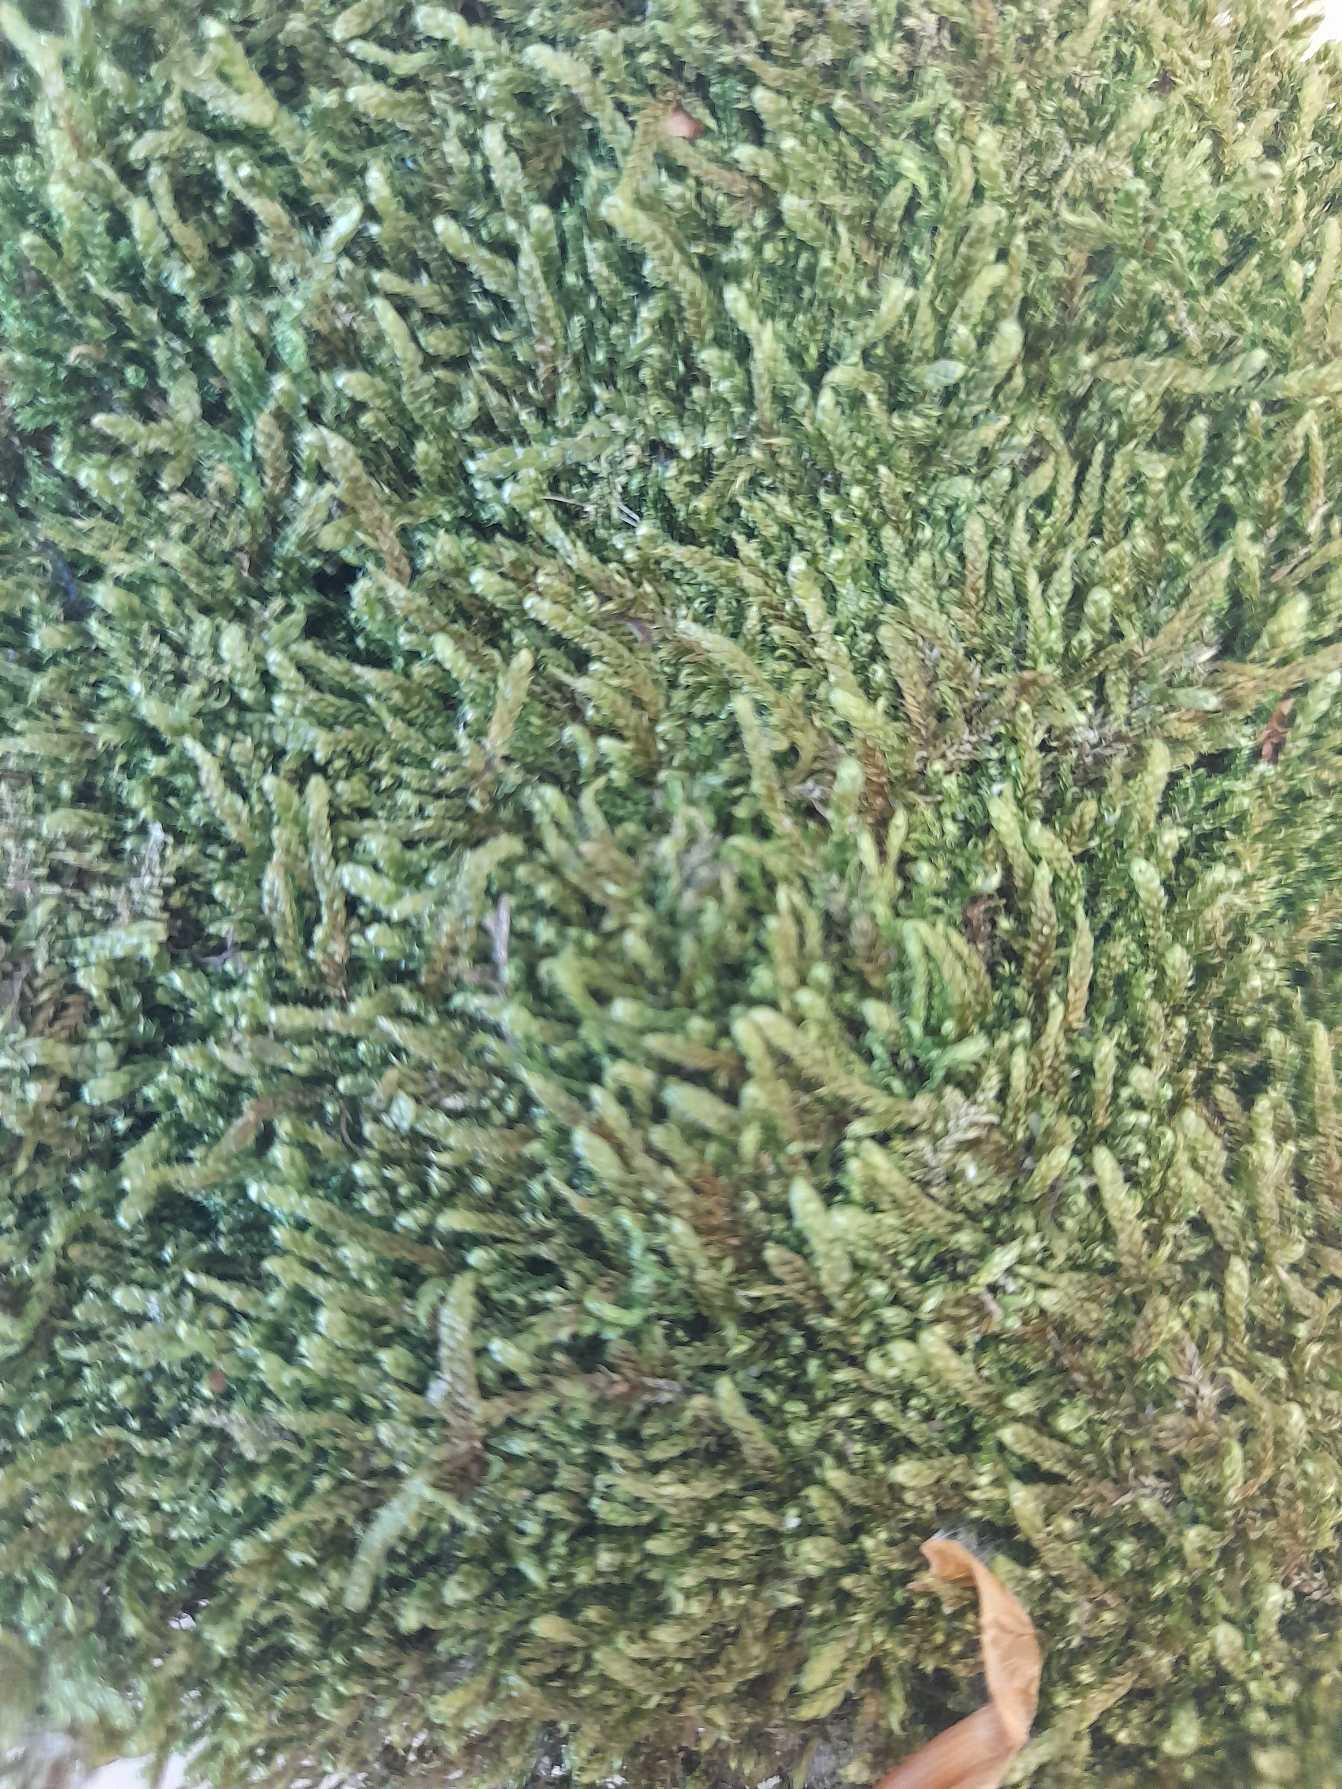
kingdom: Plantae
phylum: Bryophyta
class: Bryopsida
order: Hypnales
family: Hypnaceae
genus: Hypnum
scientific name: Hypnum
